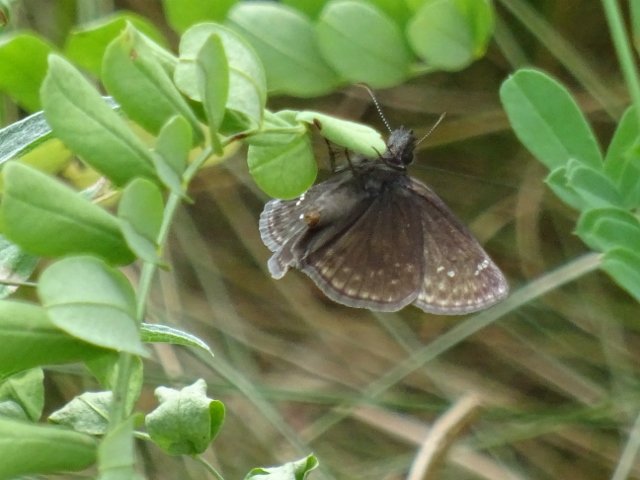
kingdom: Animalia
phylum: Arthropoda
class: Insecta
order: Lepidoptera
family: Hesperiidae
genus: Gesta
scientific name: Gesta
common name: Wild Indigo Duskywing
